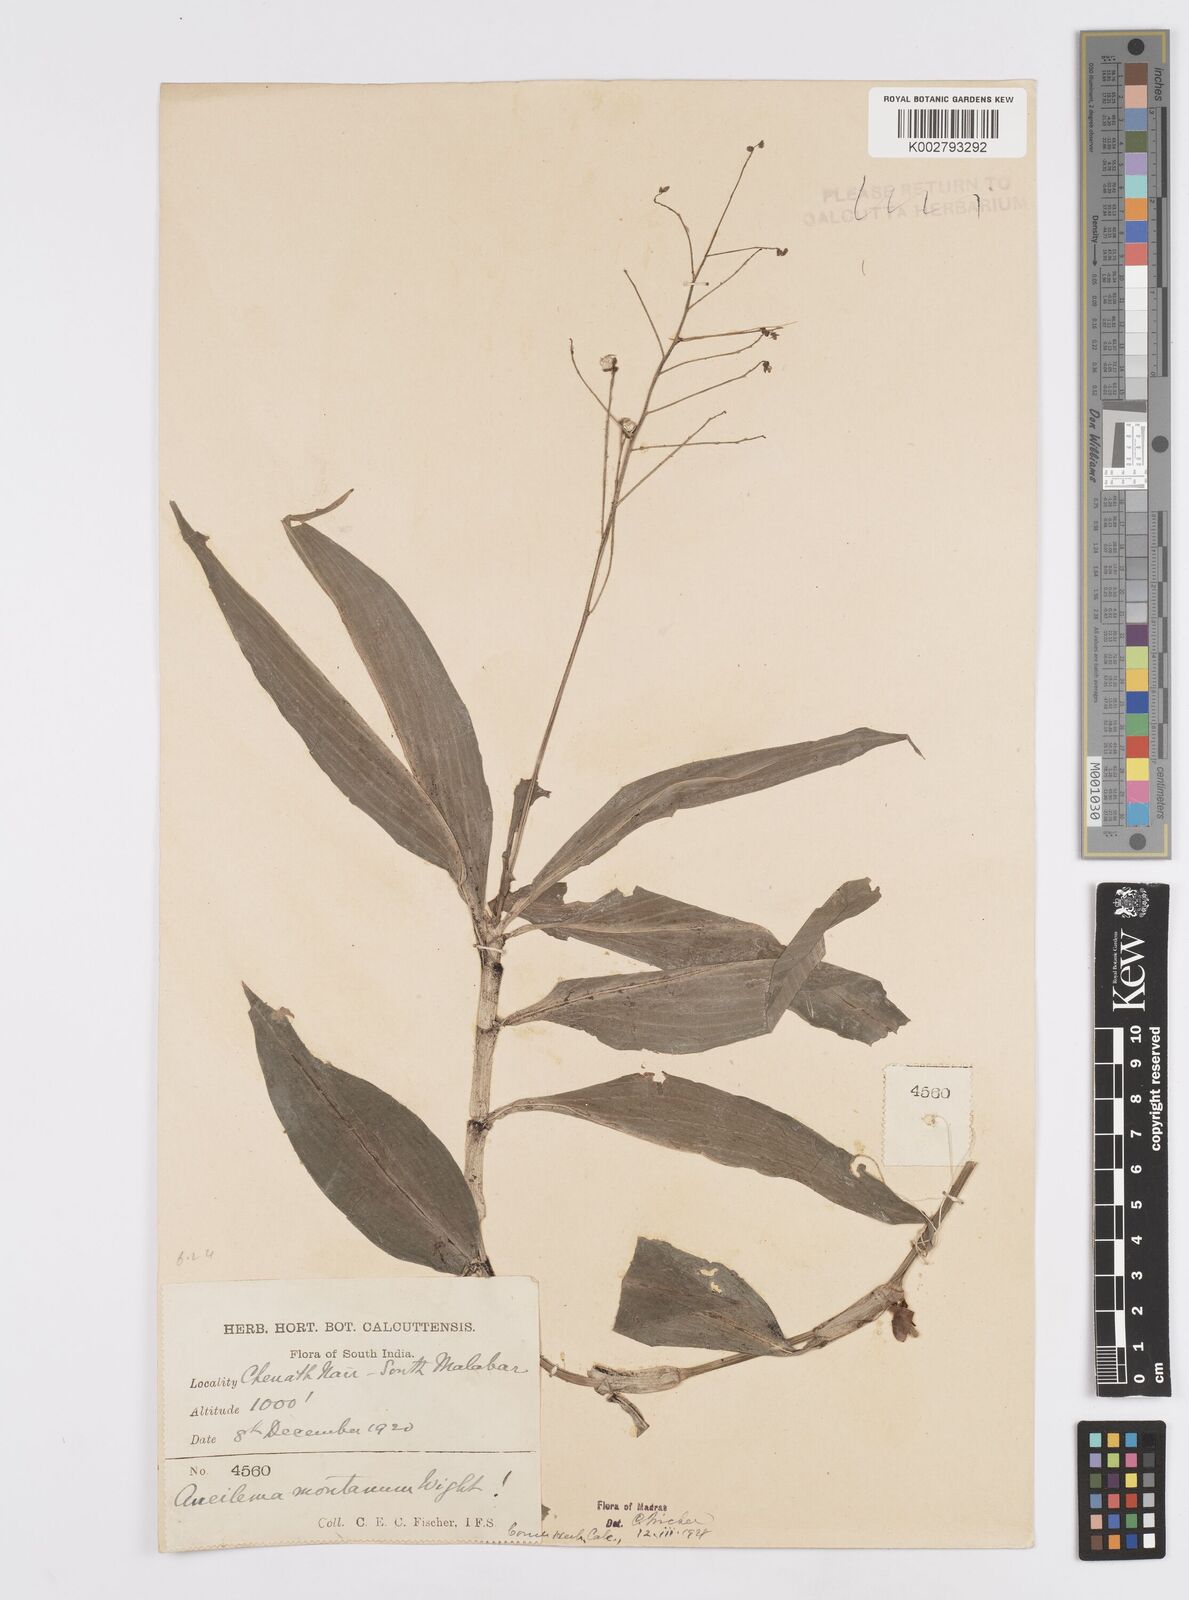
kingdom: Plantae
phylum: Tracheophyta
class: Liliopsida
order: Commelinales
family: Commelinaceae
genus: Murdannia
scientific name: Murdannia
